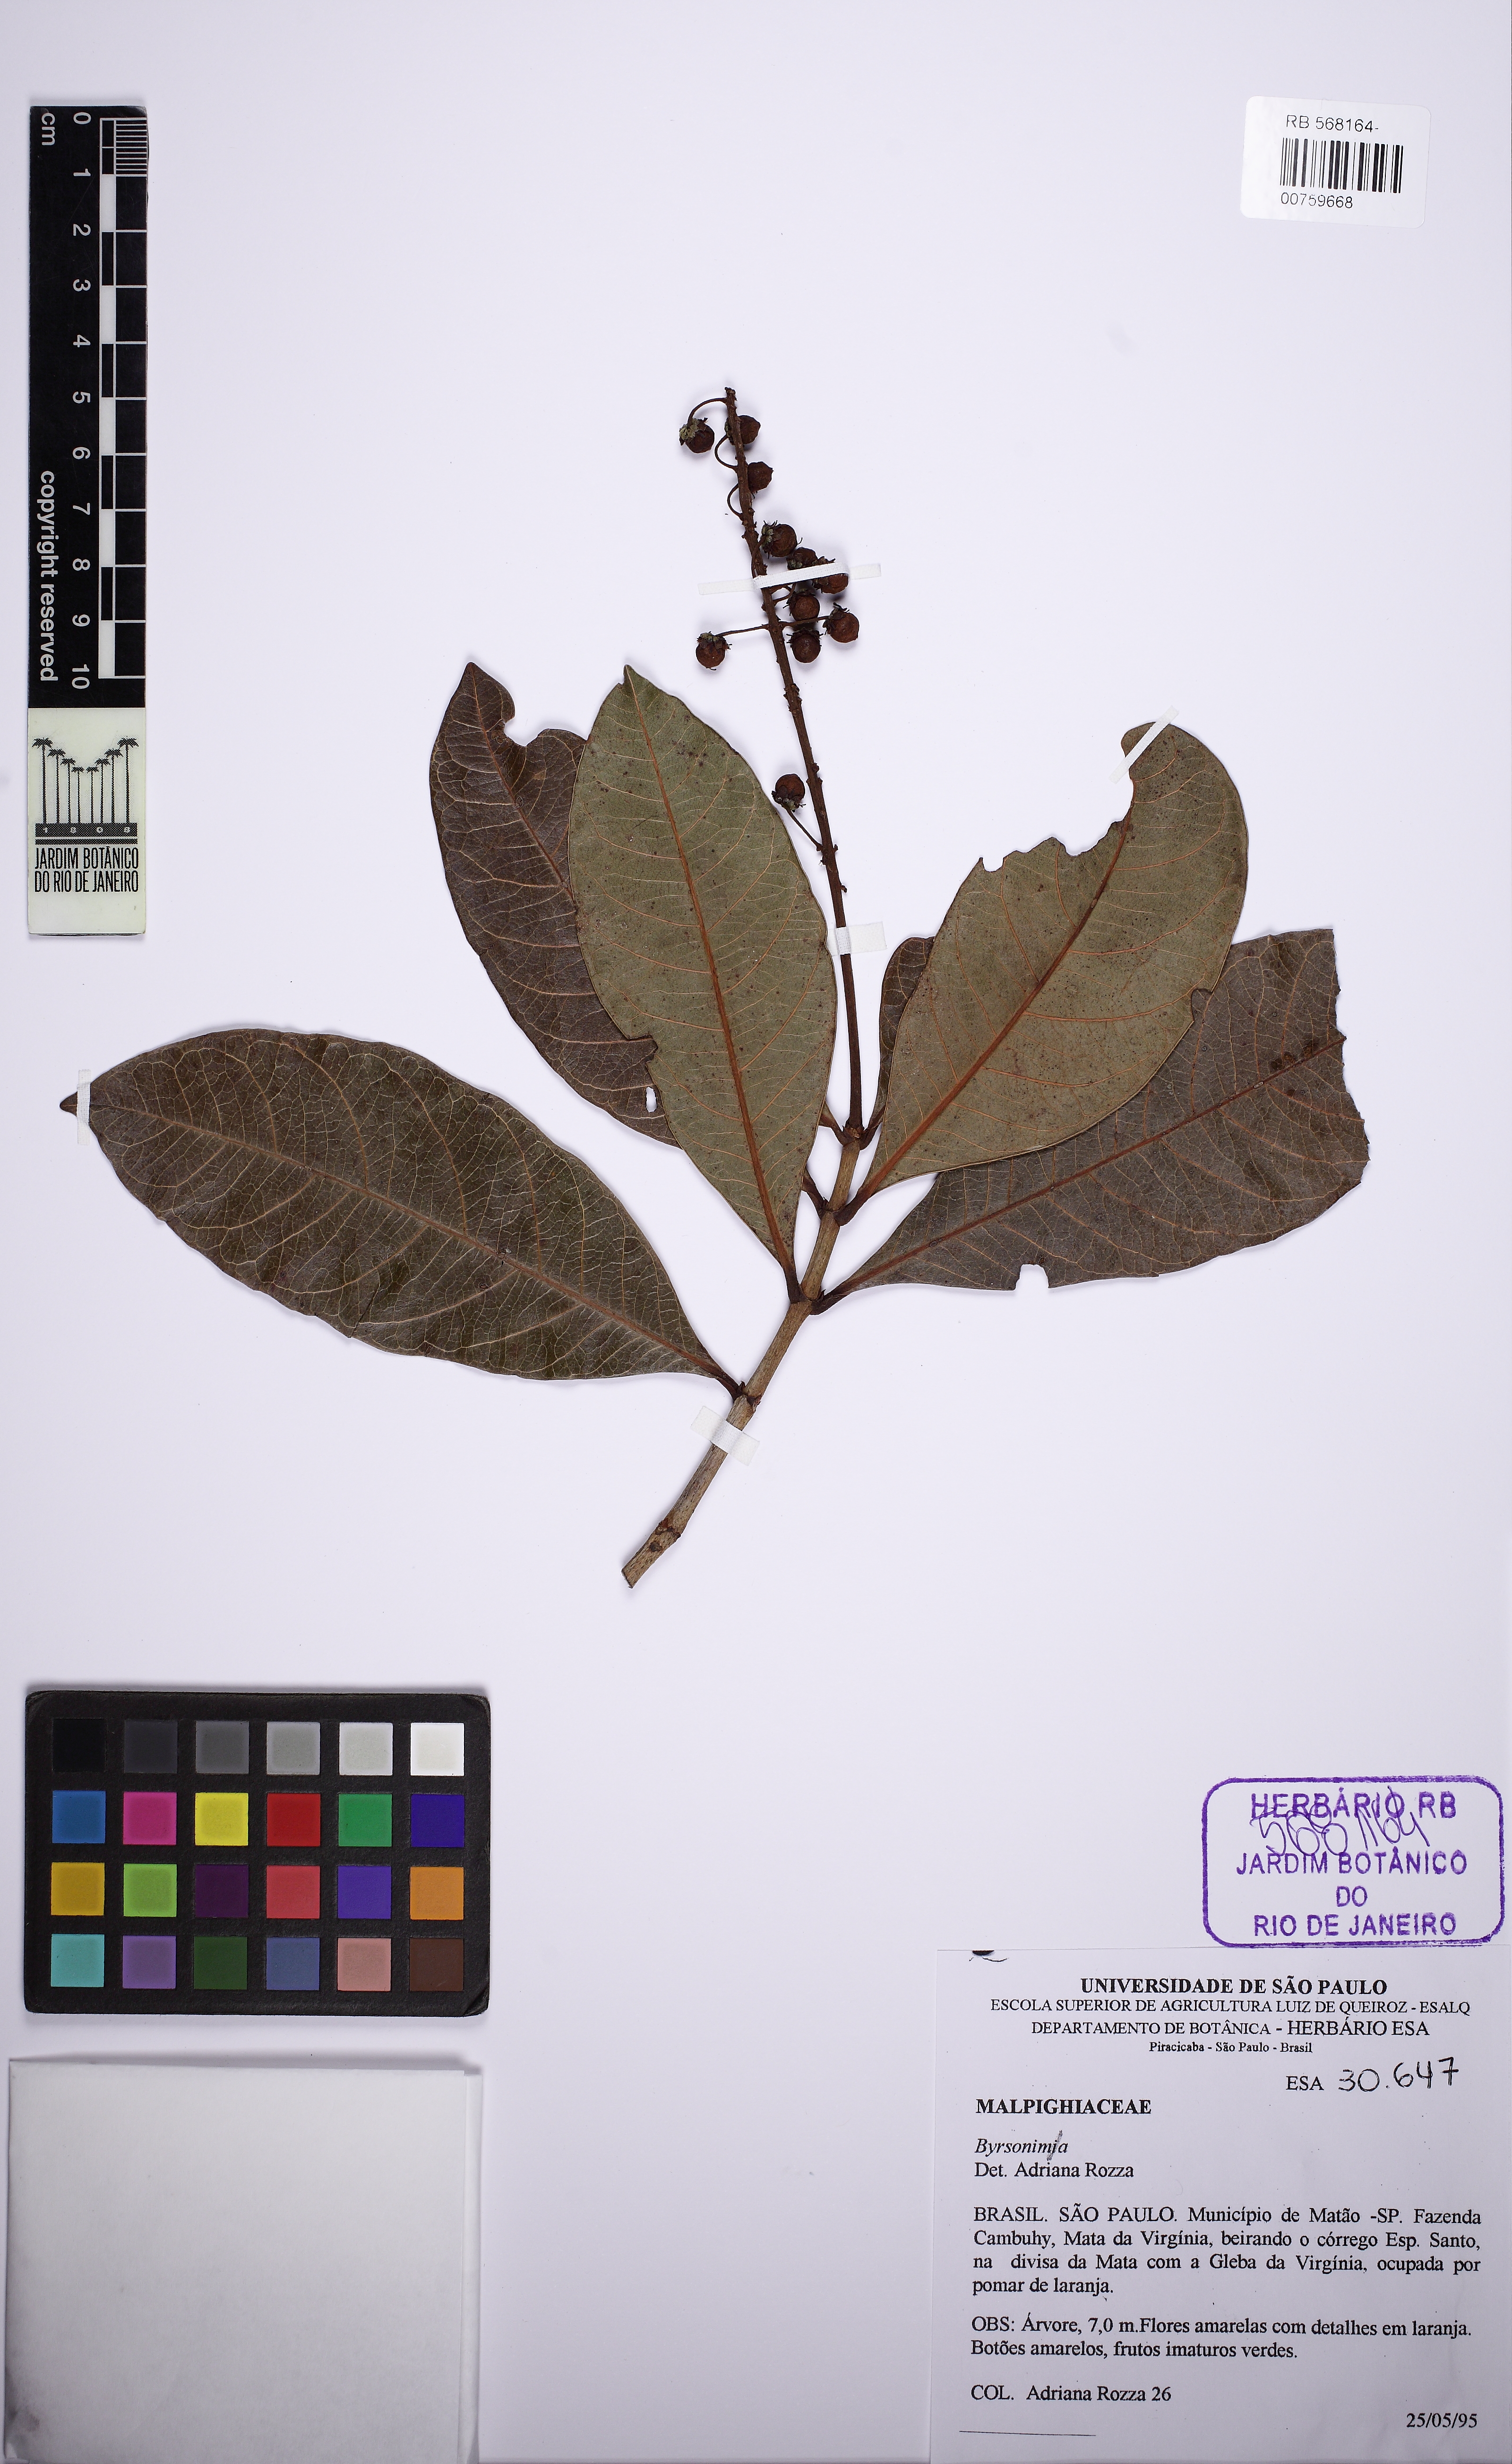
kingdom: Plantae
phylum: Tracheophyta
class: Magnoliopsida
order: Malpighiales
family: Malpighiaceae
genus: Byrsonima
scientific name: Byrsonima
